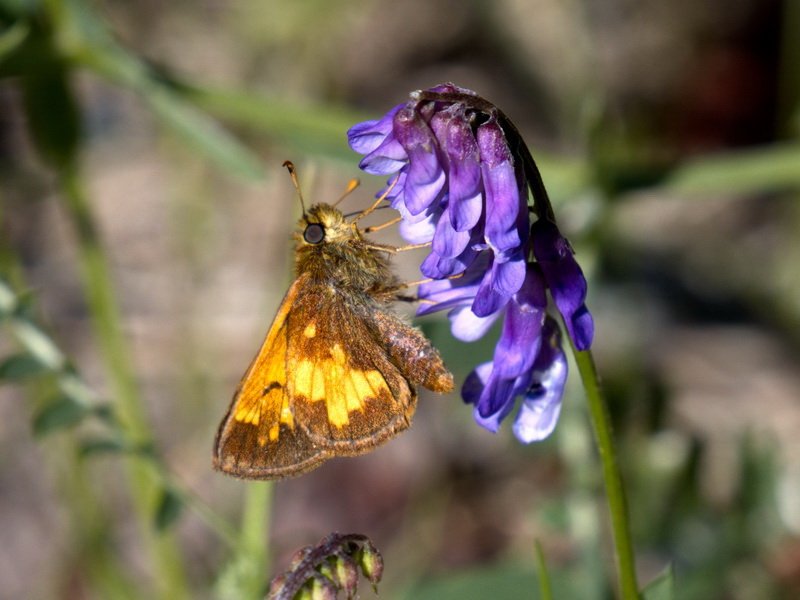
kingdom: Animalia
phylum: Arthropoda
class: Insecta
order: Lepidoptera
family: Hesperiidae
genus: Lon
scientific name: Lon hobomok
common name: Hobomok Skipper
